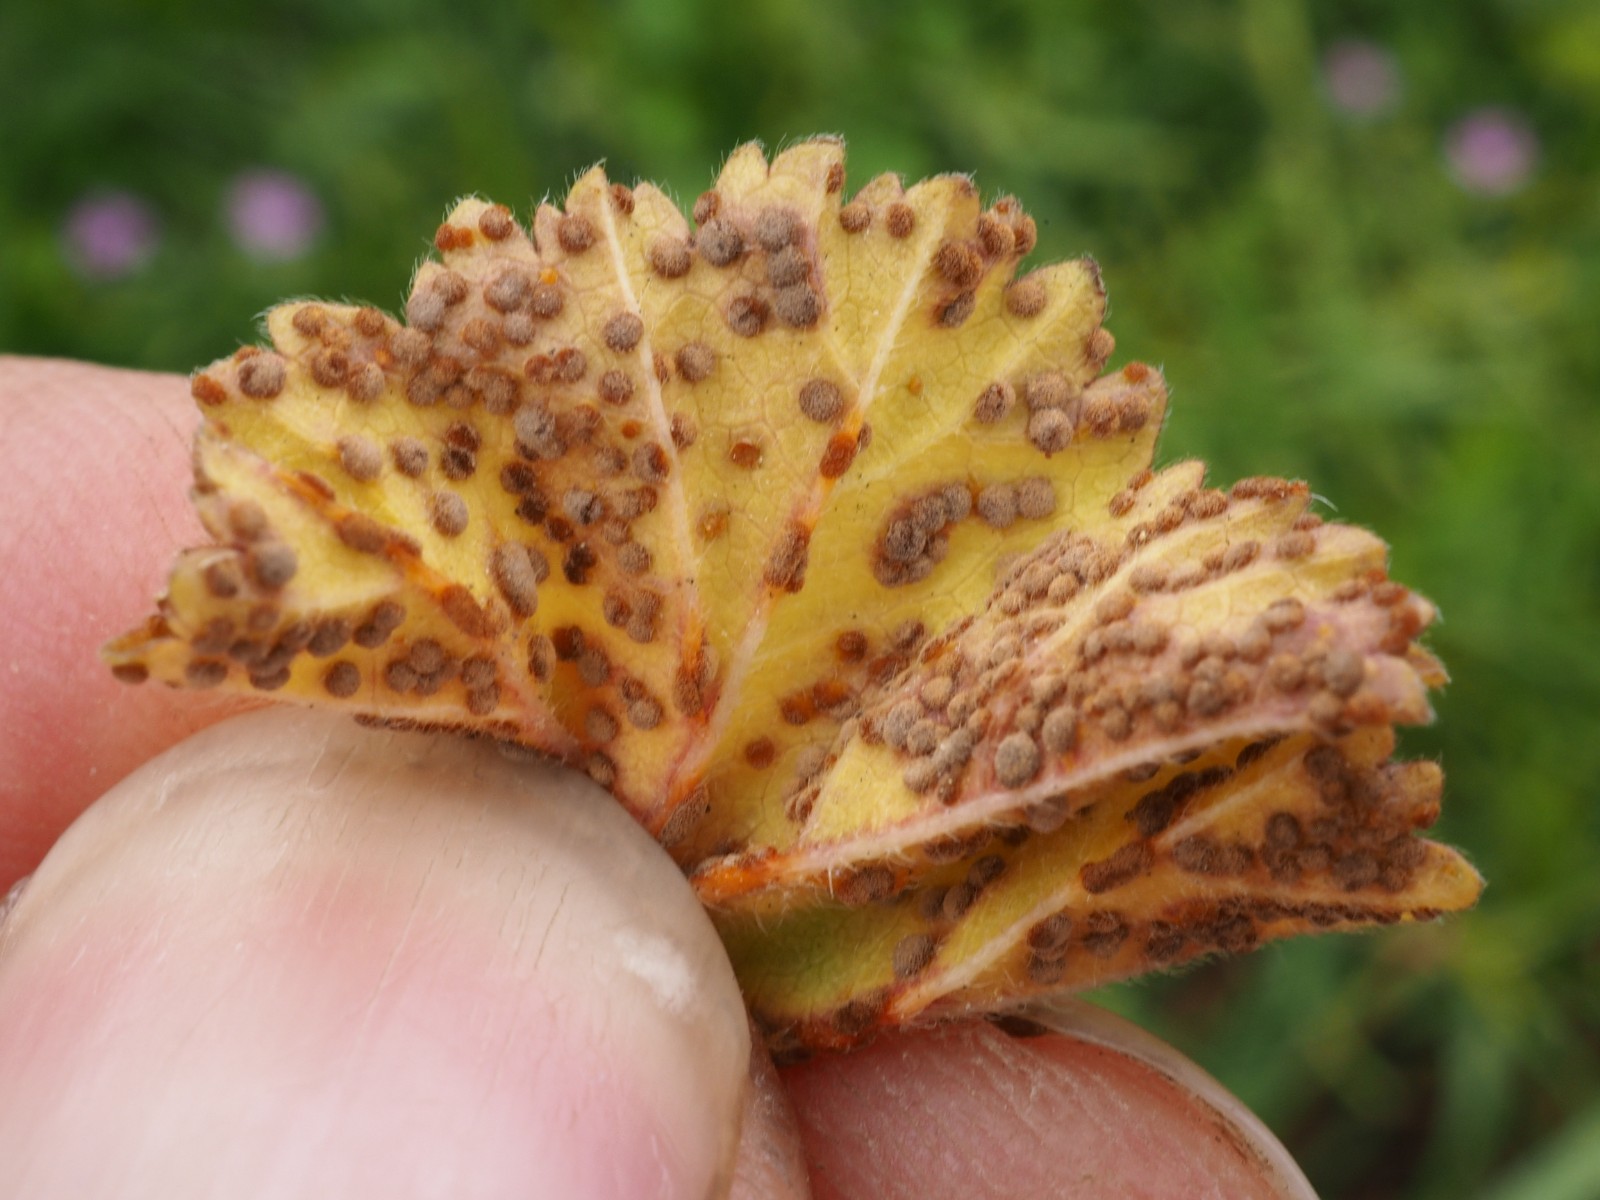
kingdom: Fungi
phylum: Basidiomycota
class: Pucciniomycetes
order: Pucciniales
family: Pucciniaceae
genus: Puccinia
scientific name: Puccinia malvacearum
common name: stokrose-tvecellerust
